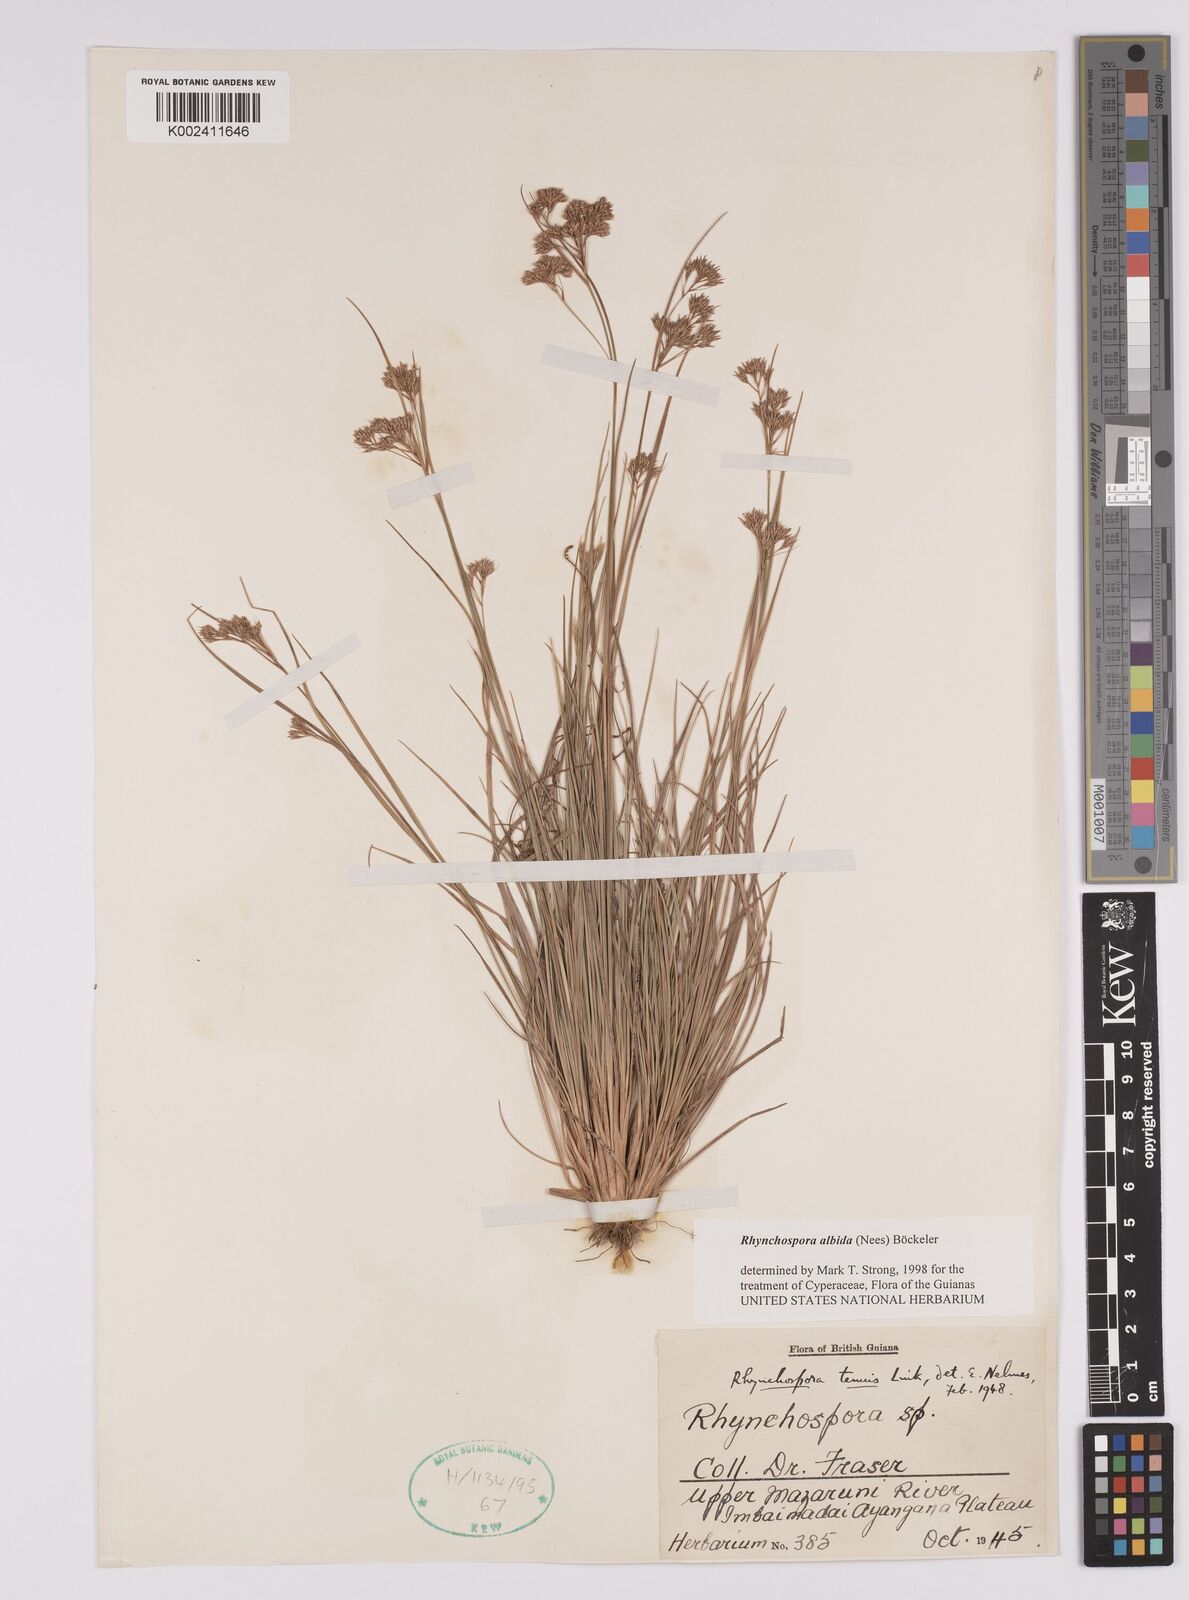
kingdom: Plantae
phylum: Tracheophyta
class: Liliopsida
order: Poales
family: Cyperaceae
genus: Rhynchospora
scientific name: Rhynchospora albida
